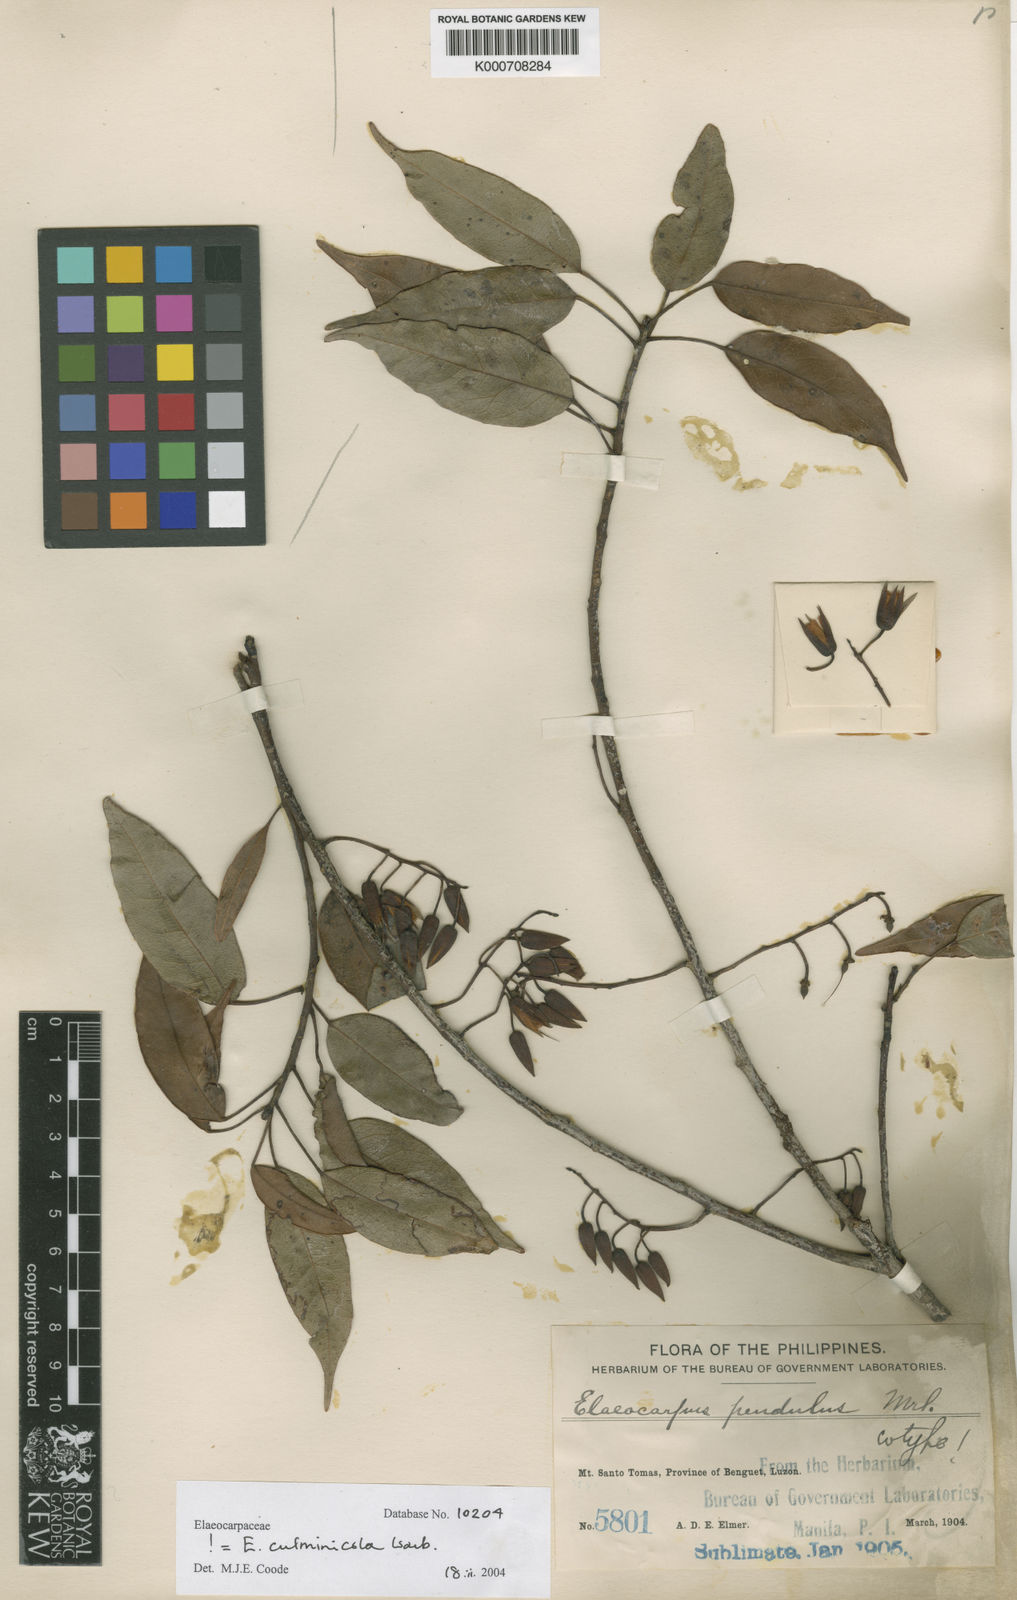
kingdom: Plantae
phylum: Tracheophyta
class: Magnoliopsida
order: Oxalidales
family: Elaeocarpaceae
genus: Elaeocarpus
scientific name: Elaeocarpus culminicola
